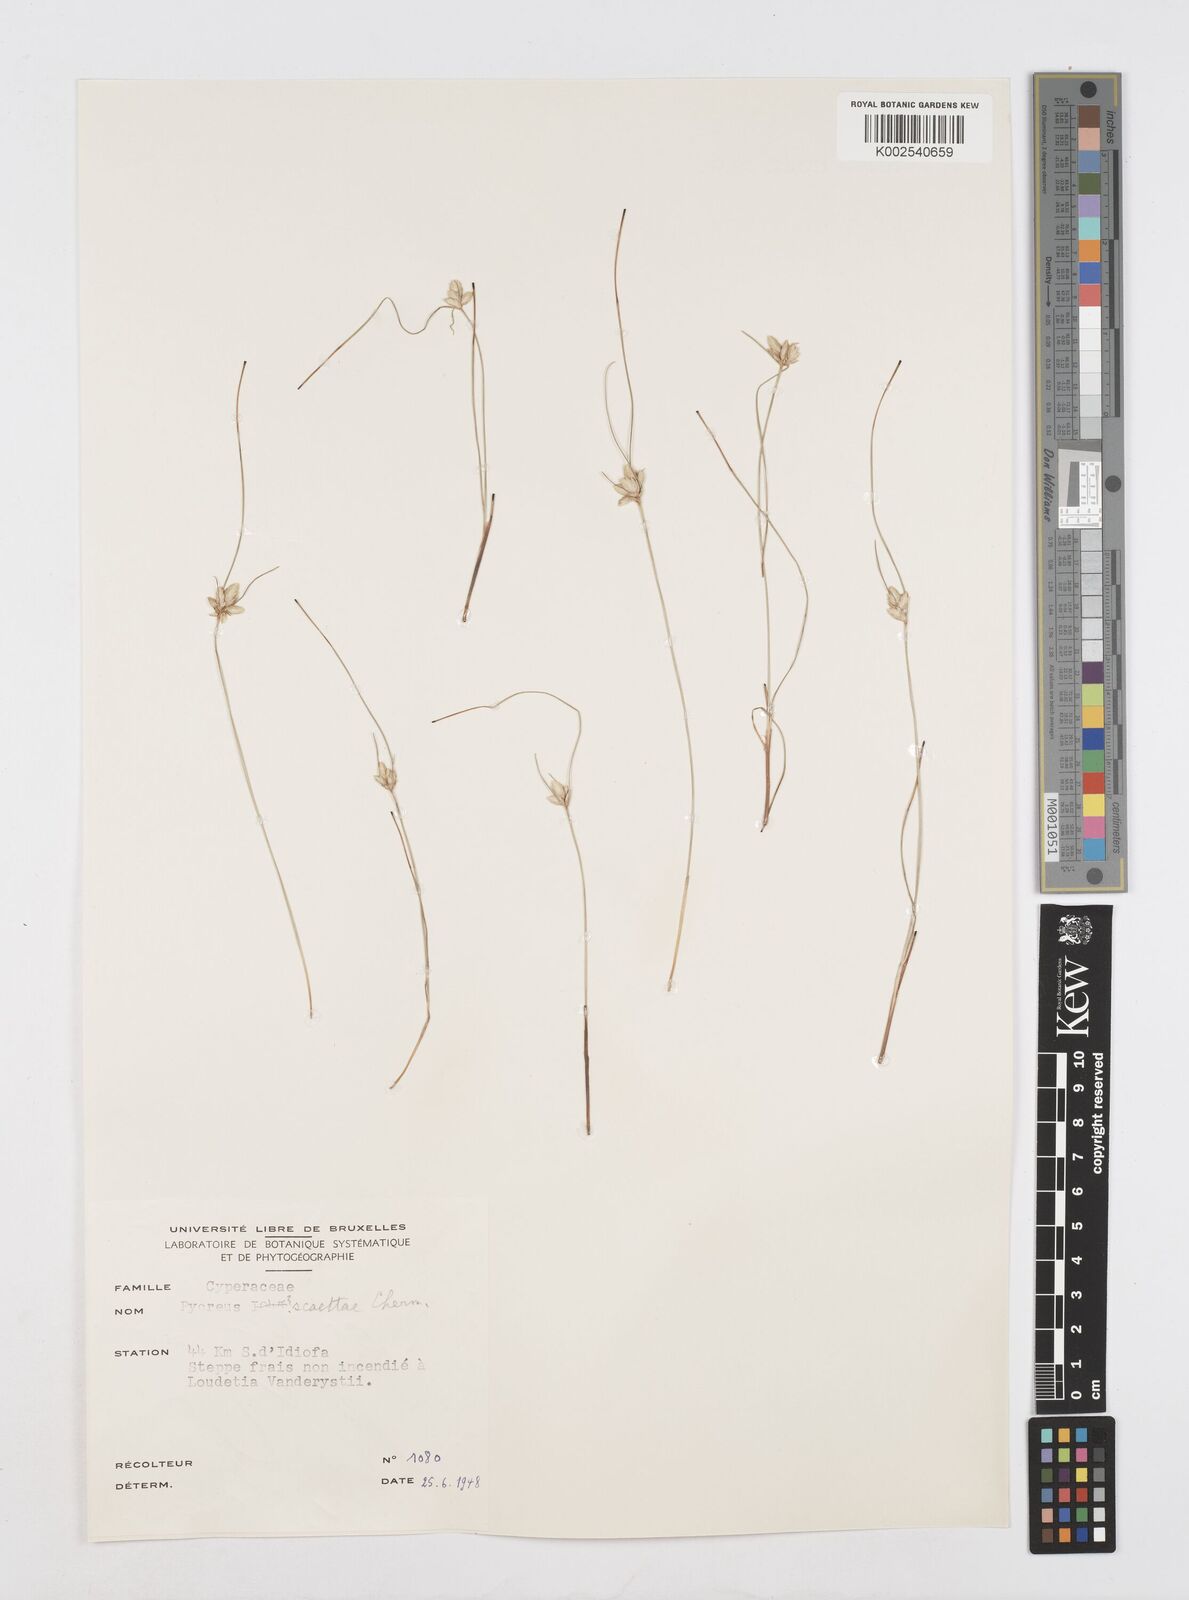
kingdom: Plantae
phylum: Tracheophyta
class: Liliopsida
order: Poales
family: Cyperaceae
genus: Cyperus
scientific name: Cyperus scaettae
